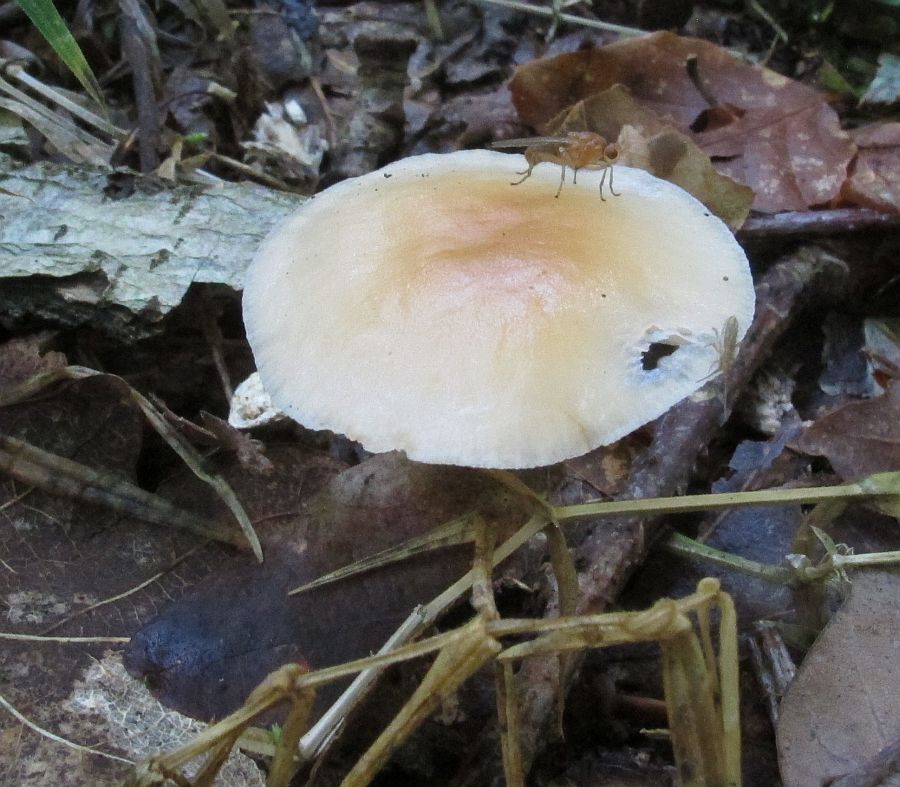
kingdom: Fungi
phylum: Basidiomycota
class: Agaricomycetes
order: Agaricales
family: Omphalotaceae
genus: Gymnopus
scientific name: Gymnopus dryophilus
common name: løv-fladhat
